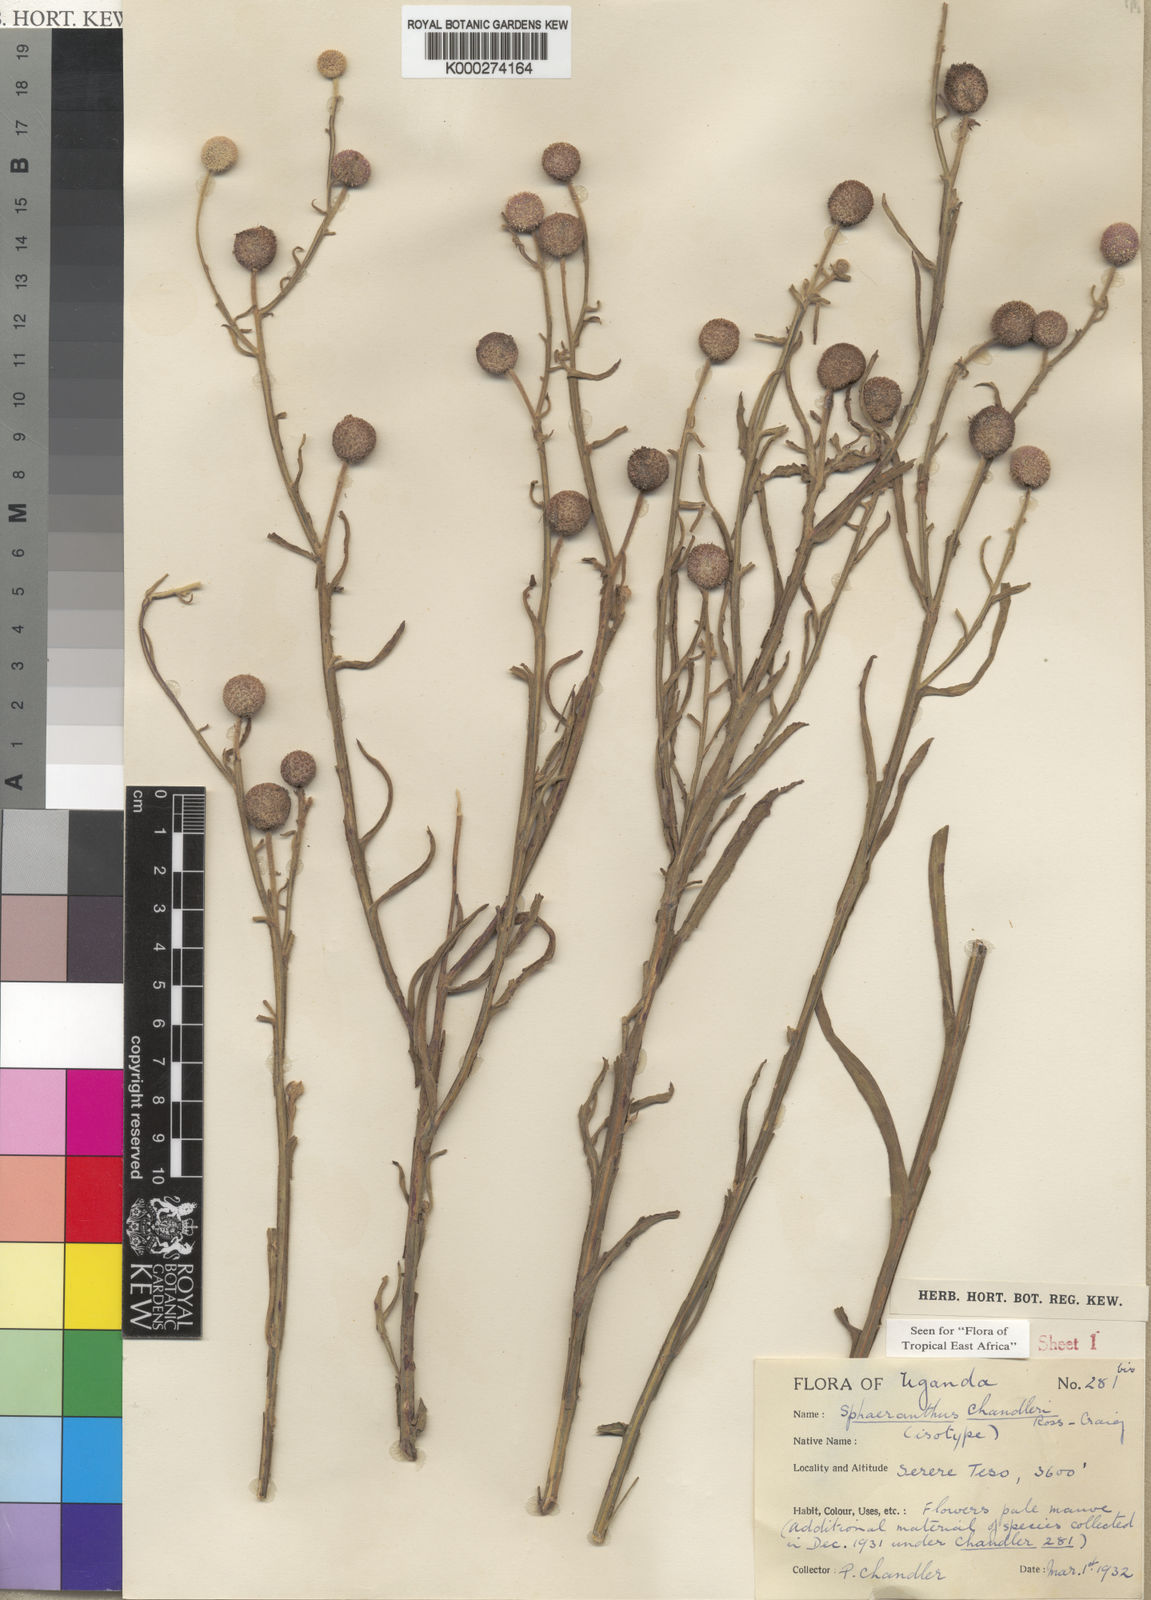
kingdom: Plantae
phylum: Tracheophyta
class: Magnoliopsida
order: Asterales
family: Asteraceae
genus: Sphaeranthus
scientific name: Sphaeranthus chandleri
